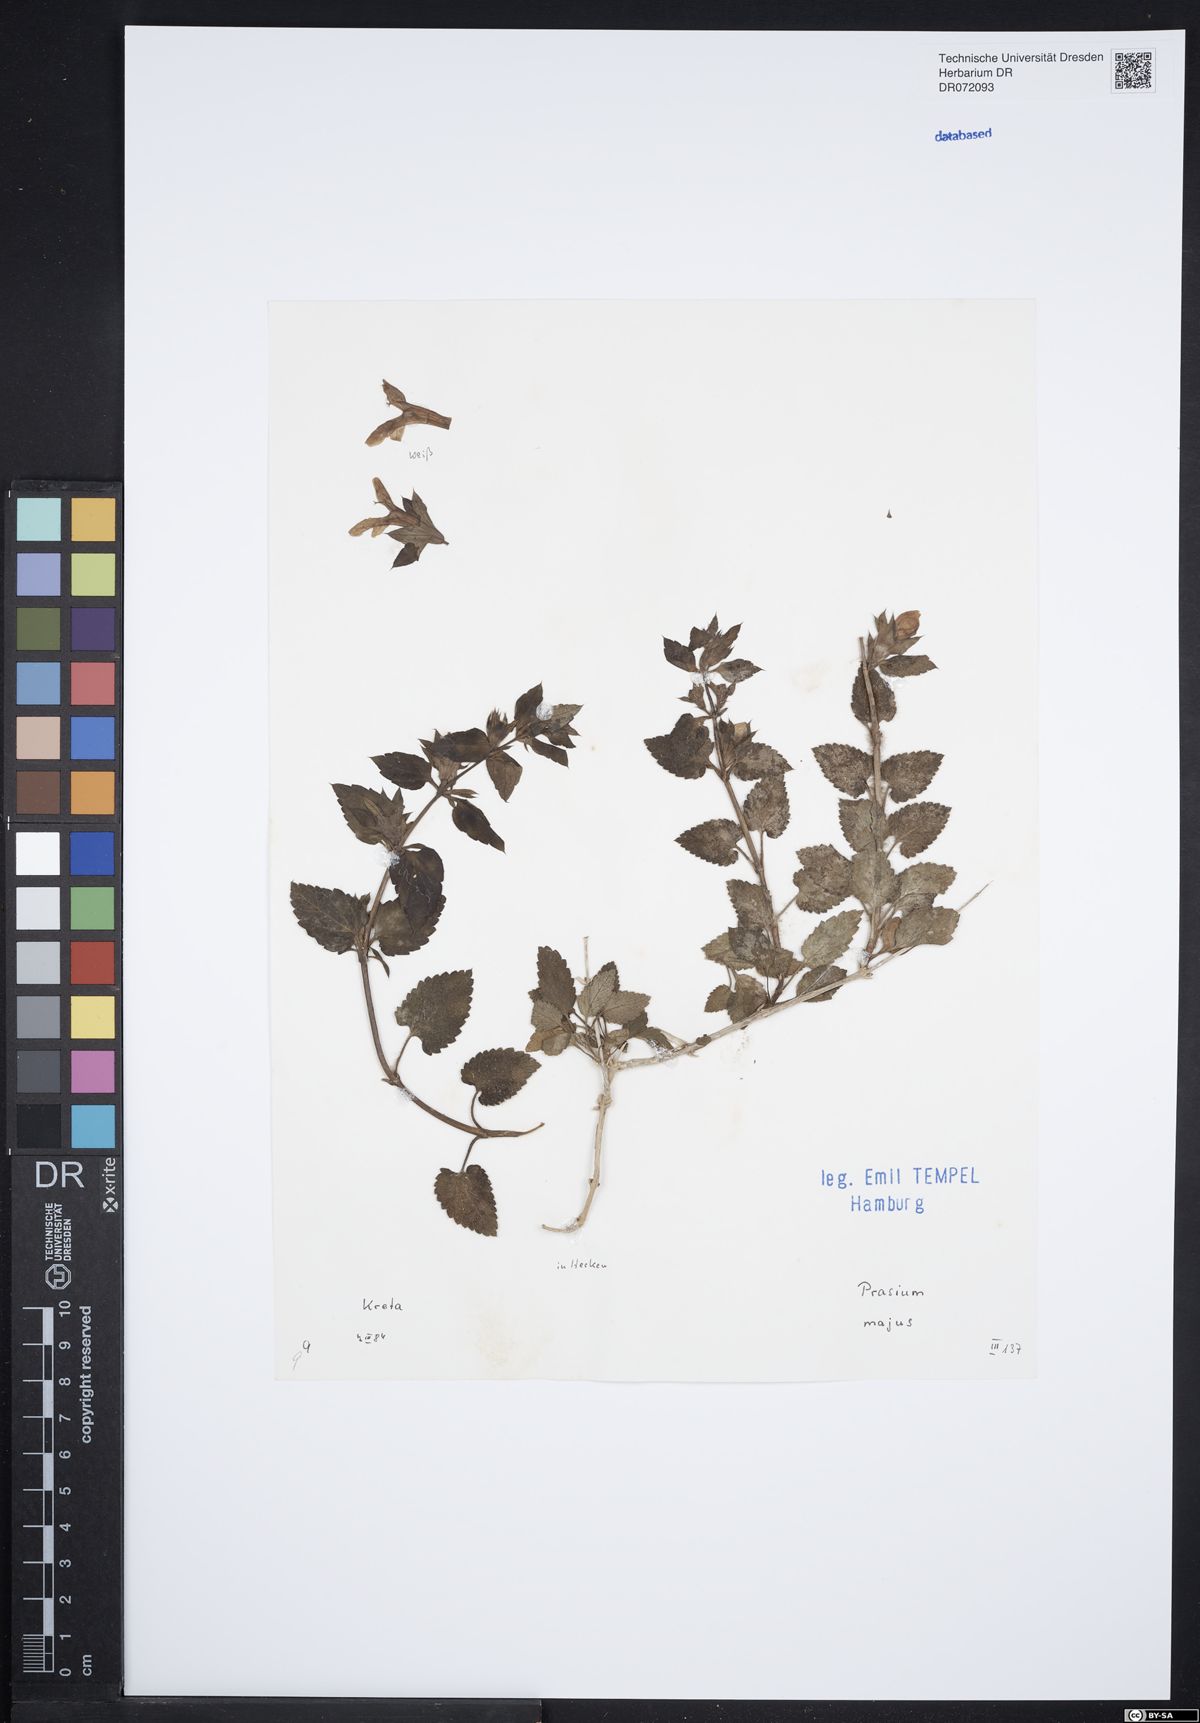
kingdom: Plantae
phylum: Tracheophyta
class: Magnoliopsida
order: Lamiales
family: Lamiaceae
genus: Prasium
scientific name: Prasium majus
